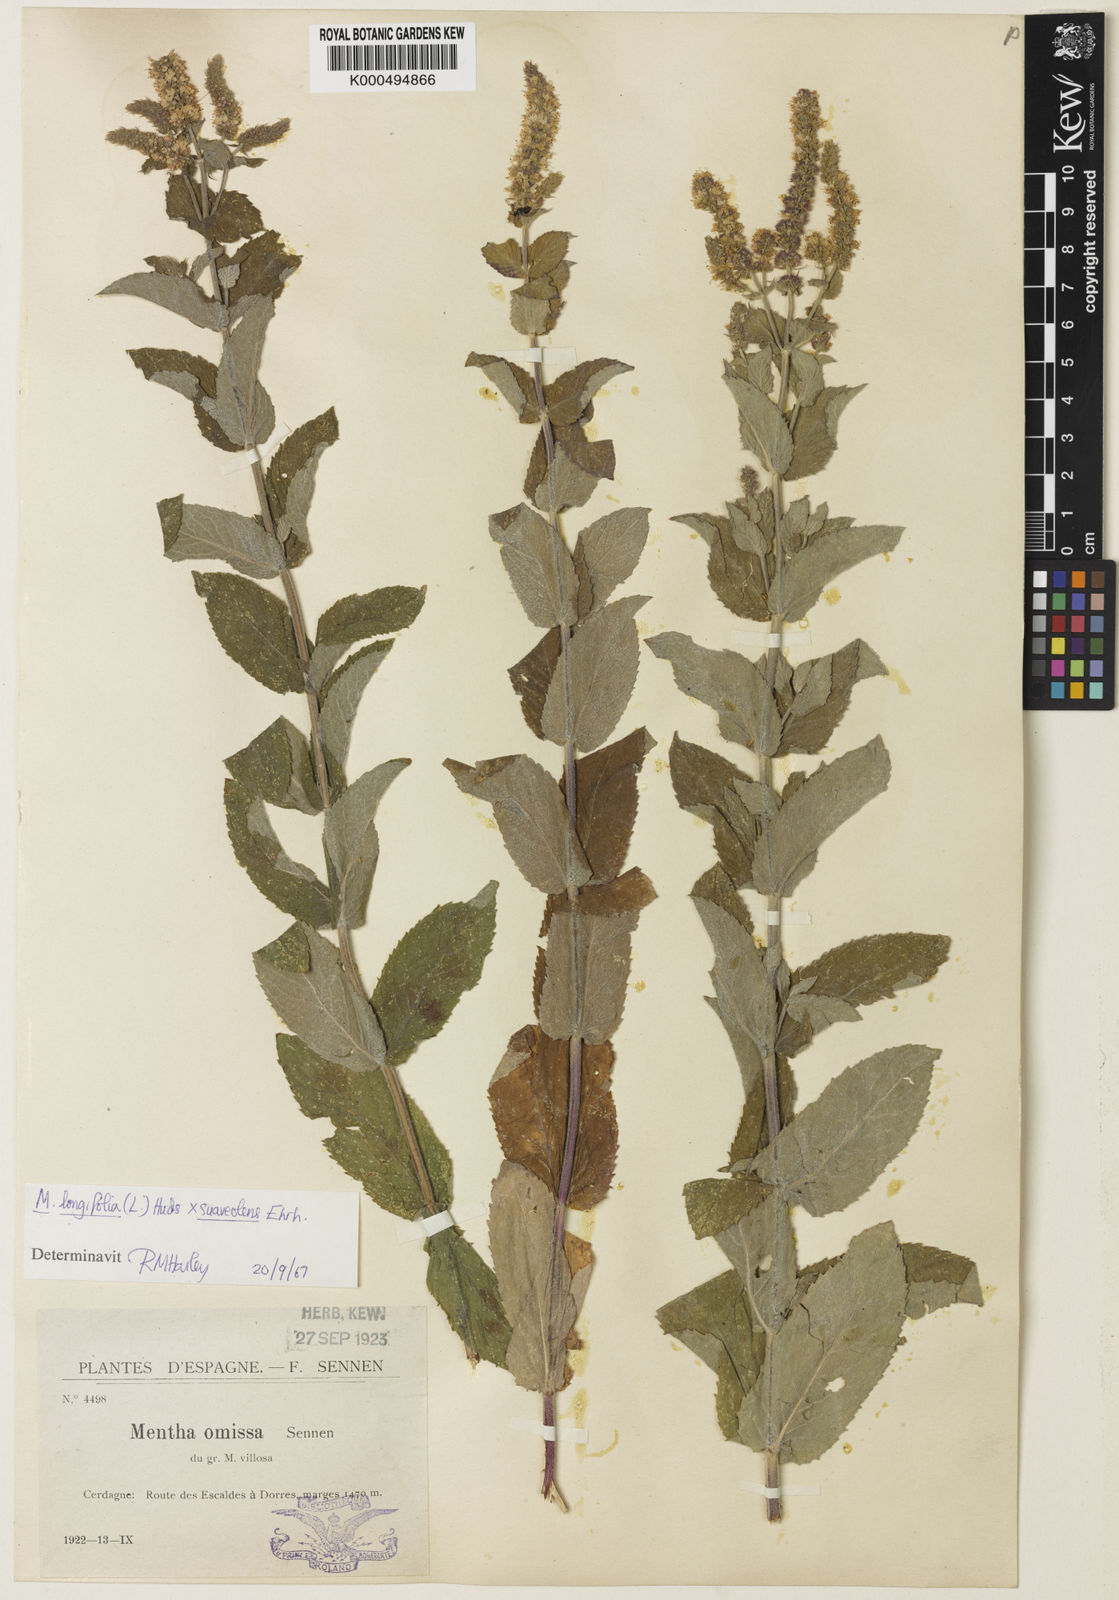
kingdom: Plantae
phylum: Tracheophyta
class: Magnoliopsida
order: Lamiales
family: Lamiaceae
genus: Mentha
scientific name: Mentha rotundifolia
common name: Bigleaf mint
